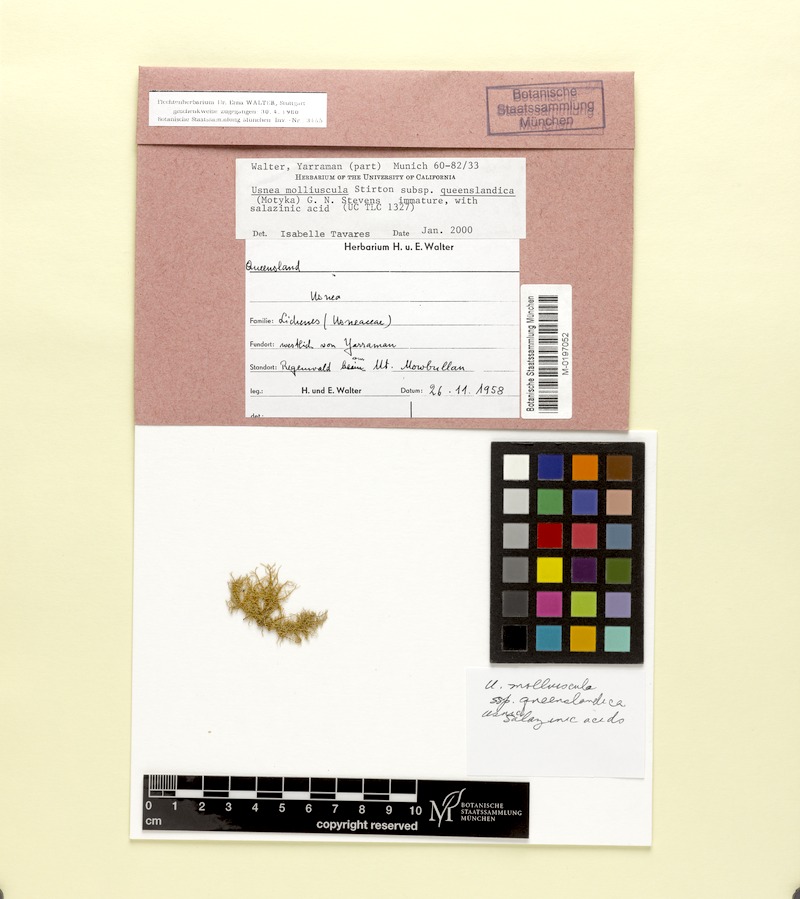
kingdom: Fungi
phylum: Ascomycota
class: Lecanoromycetes
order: Lecanorales
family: Parmeliaceae
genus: Usnea
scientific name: Usnea molliuscula
